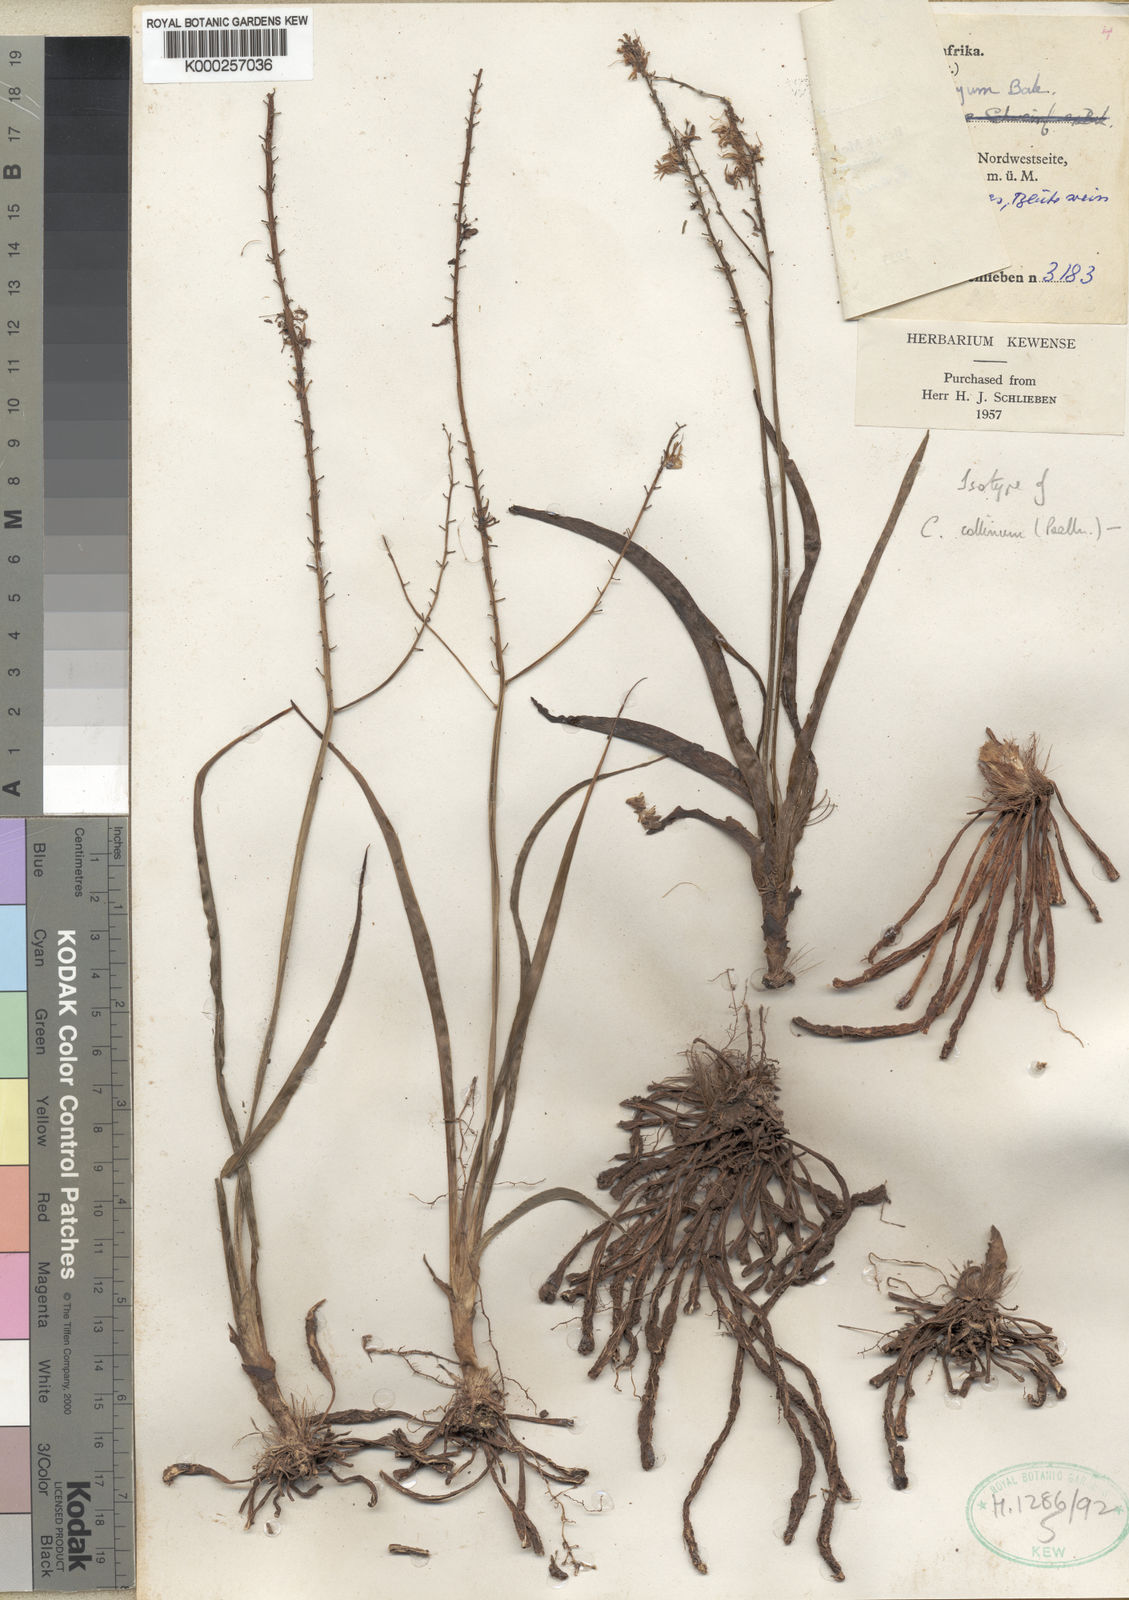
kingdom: Plantae
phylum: Tracheophyta
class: Liliopsida
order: Asparagales
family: Asparagaceae
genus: Chlorophytum
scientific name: Chlorophytum collinum
